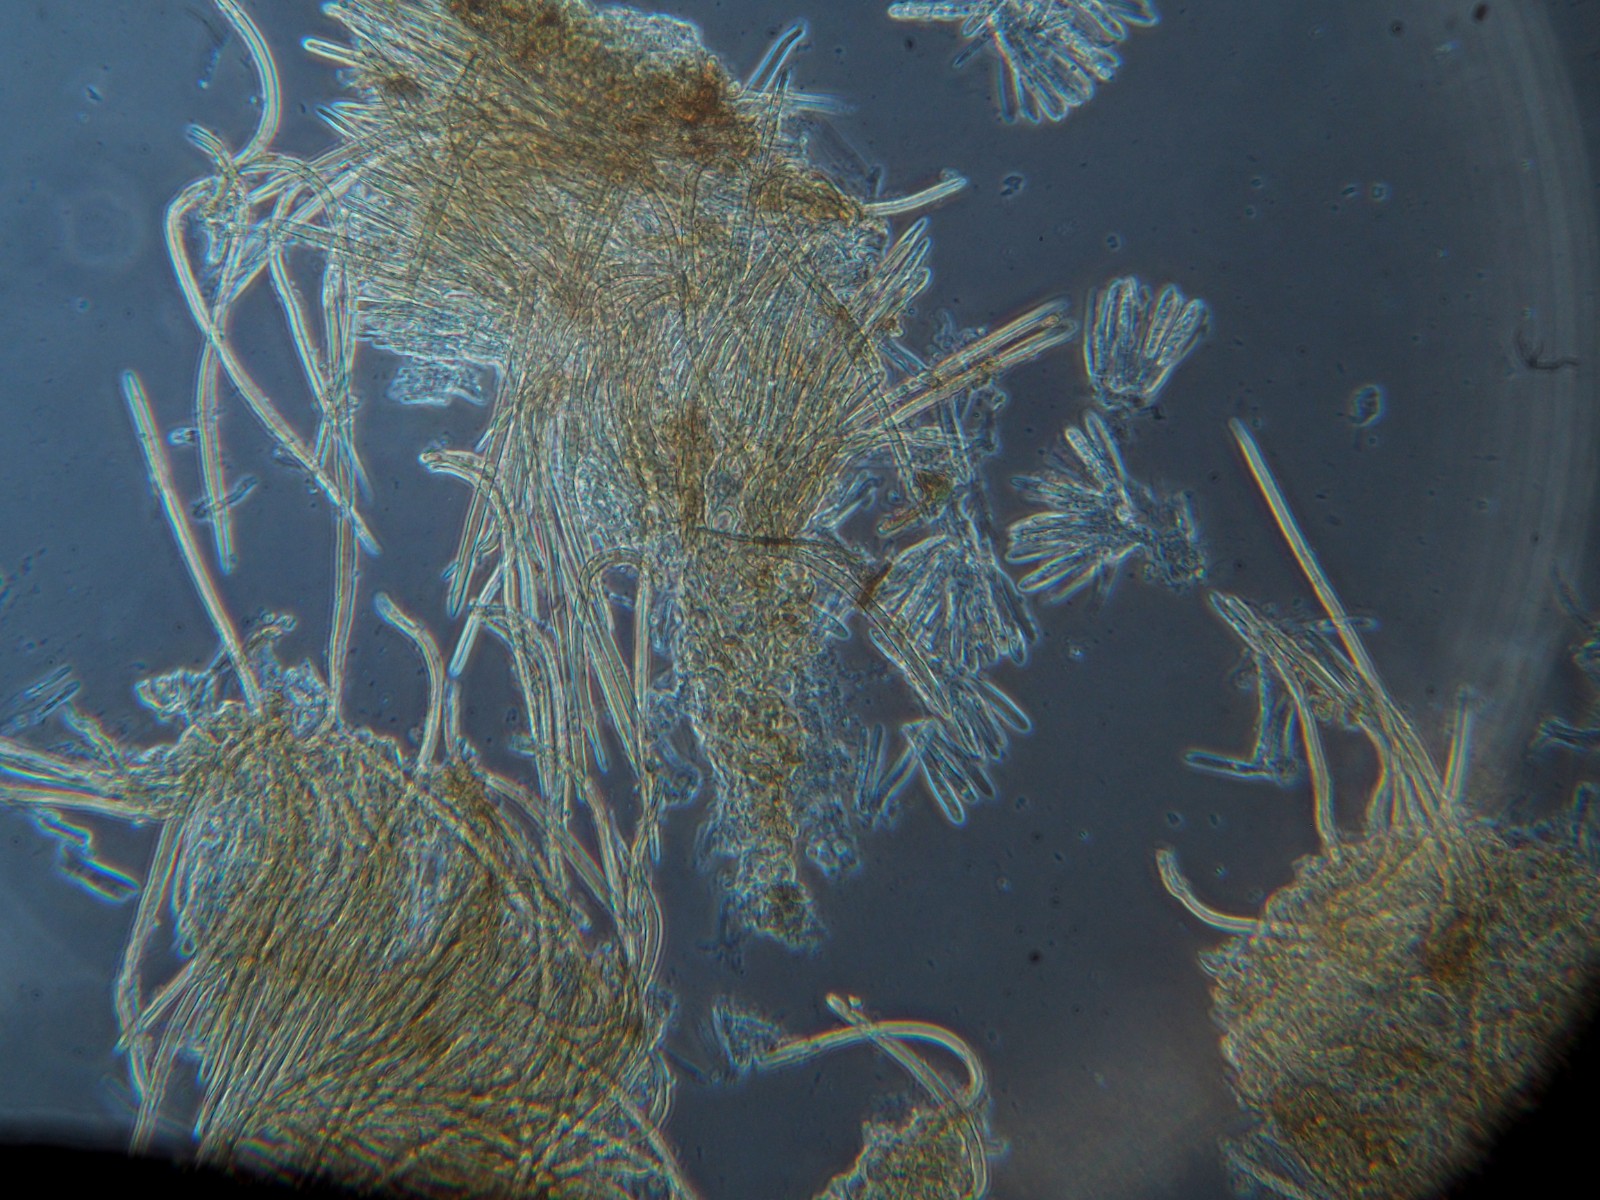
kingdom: Fungi
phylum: Ascomycota
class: Leotiomycetes
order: Helotiales
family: Hyaloscyphaceae
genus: Hyalopeziza
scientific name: Hyalopeziza trichodea
